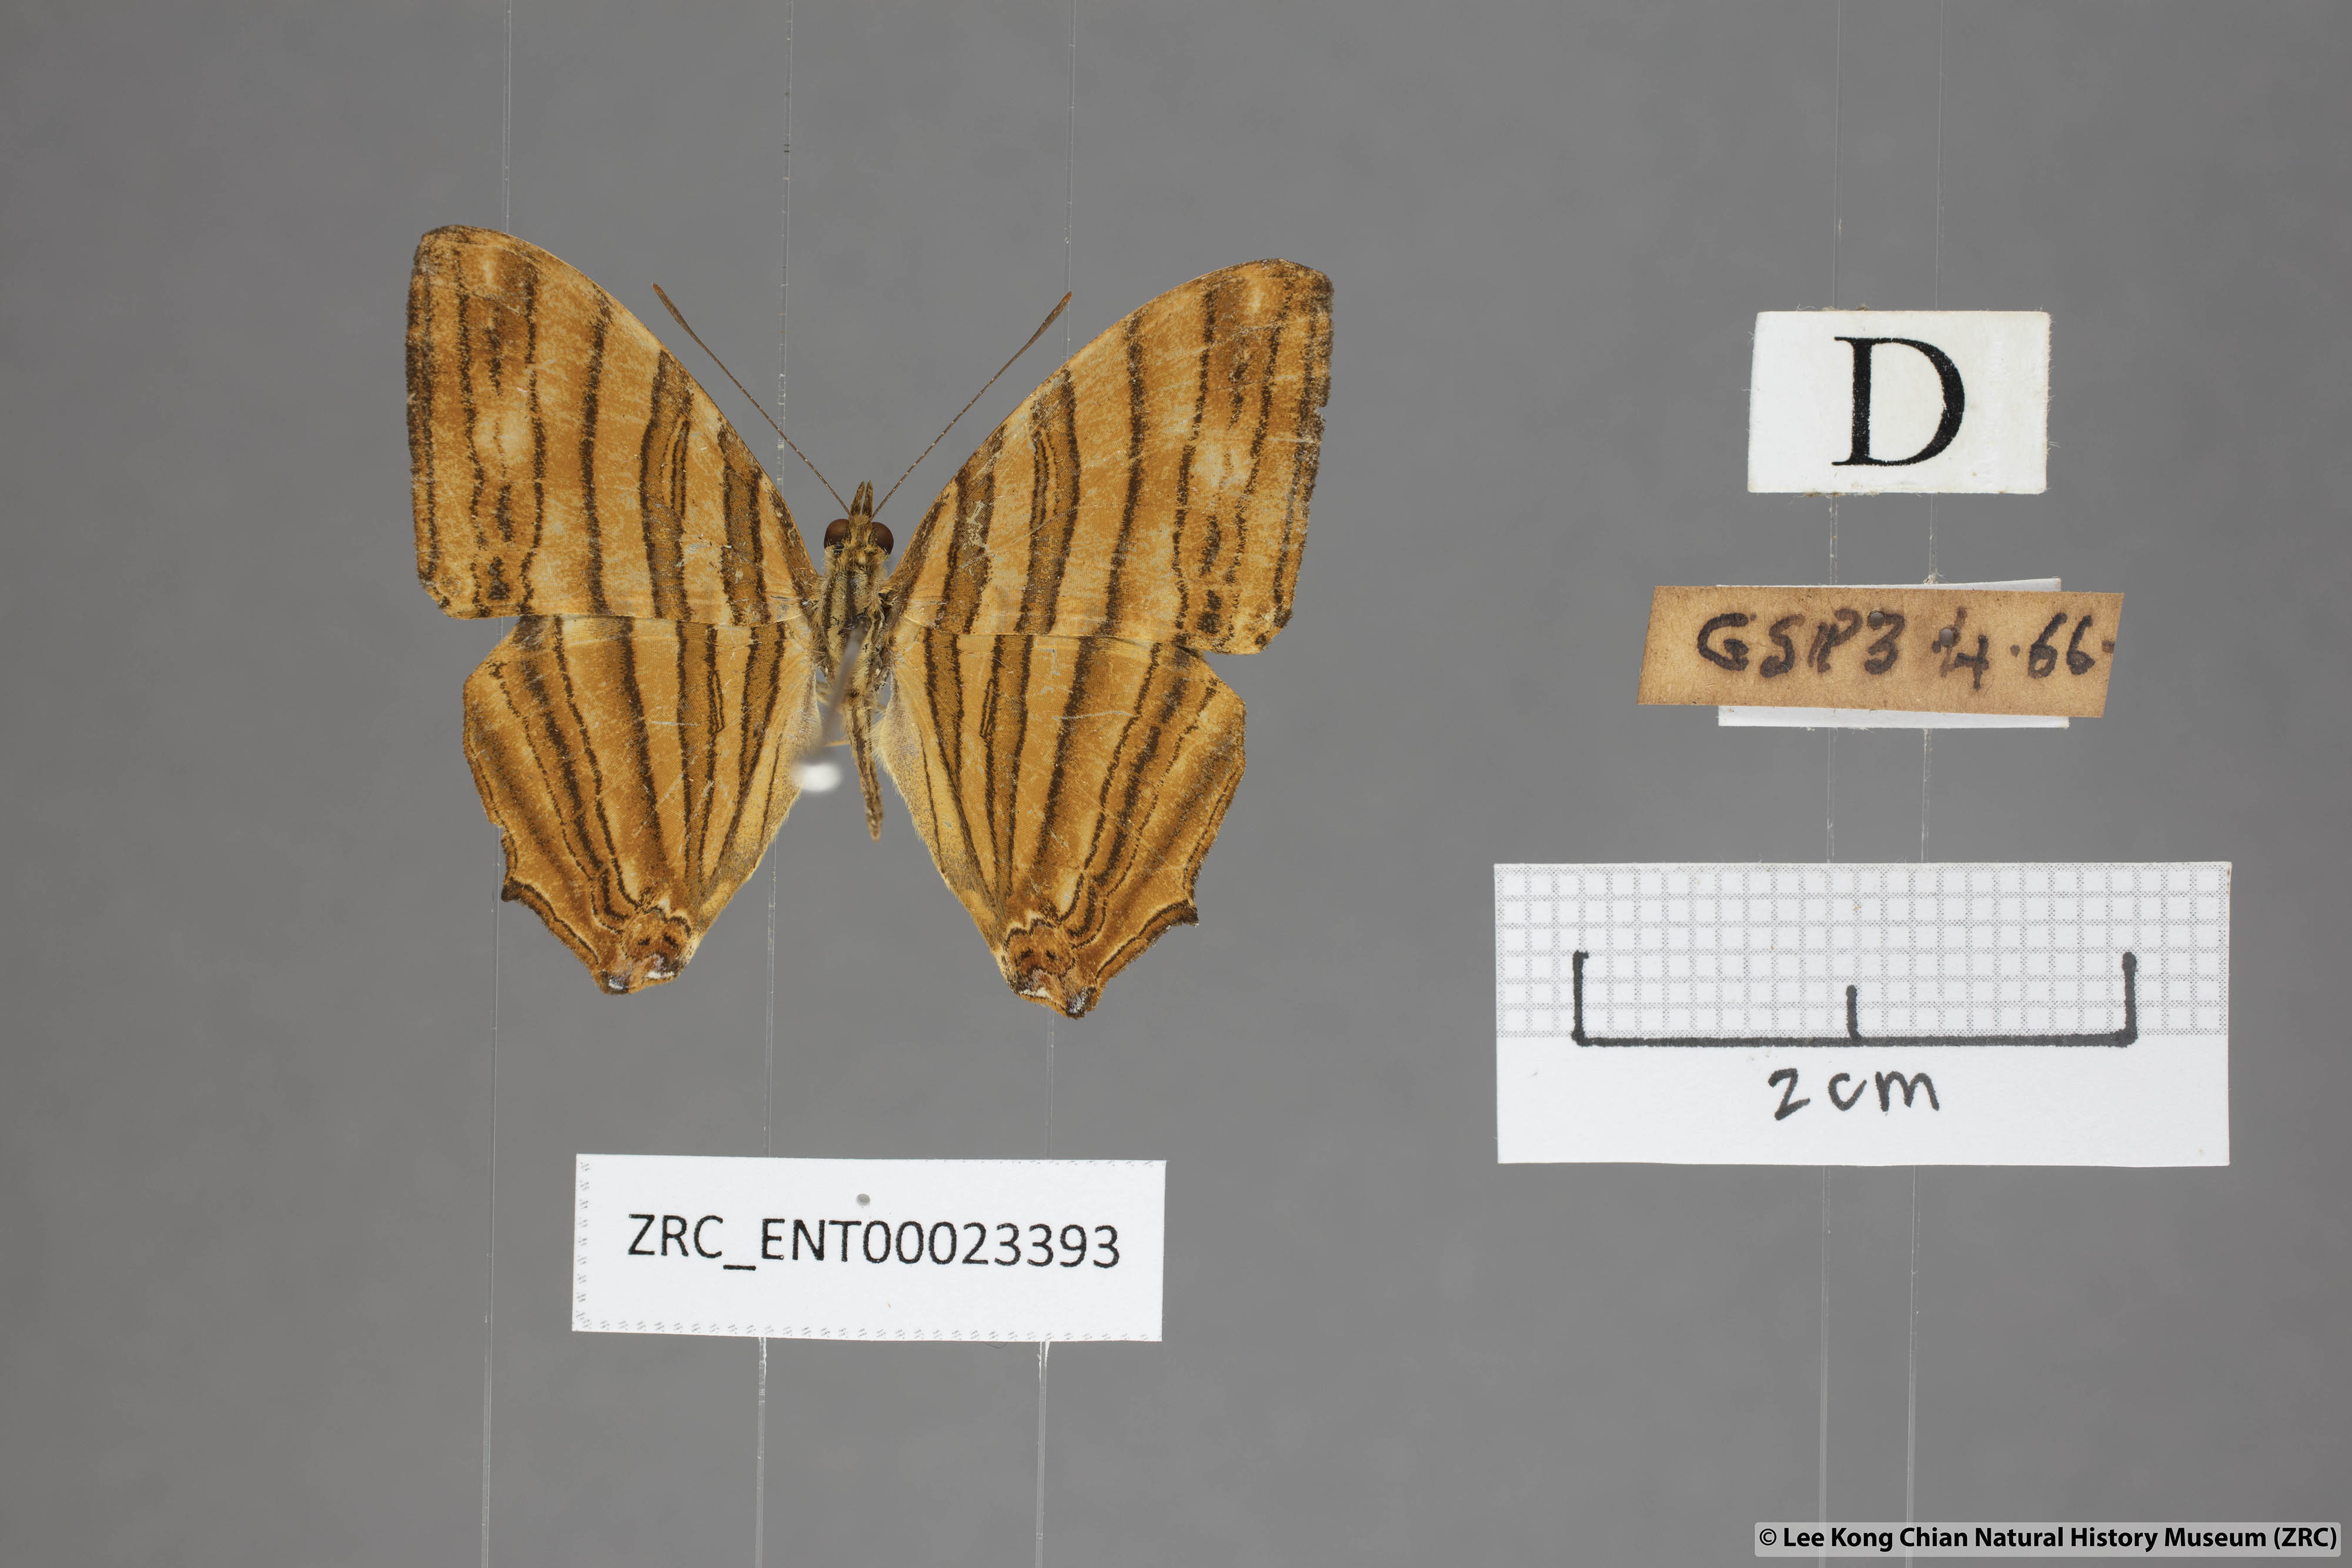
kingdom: Animalia
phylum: Arthropoda
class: Insecta
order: Lepidoptera
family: Nymphalidae
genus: Chersonesia
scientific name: Chersonesia risa
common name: Common maplet
